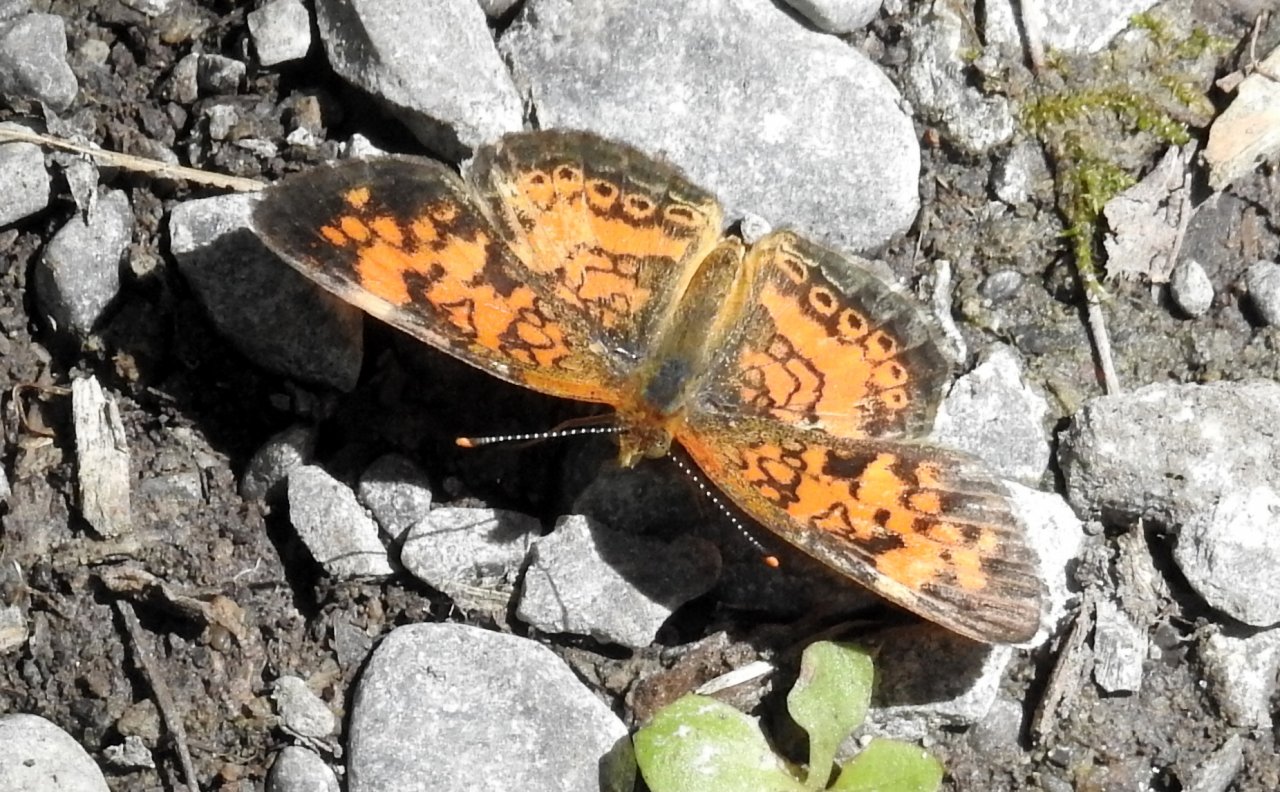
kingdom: Animalia
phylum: Arthropoda
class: Insecta
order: Lepidoptera
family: Nymphalidae
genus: Phyciodes
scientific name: Phyciodes tharos
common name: Northern Crescent
